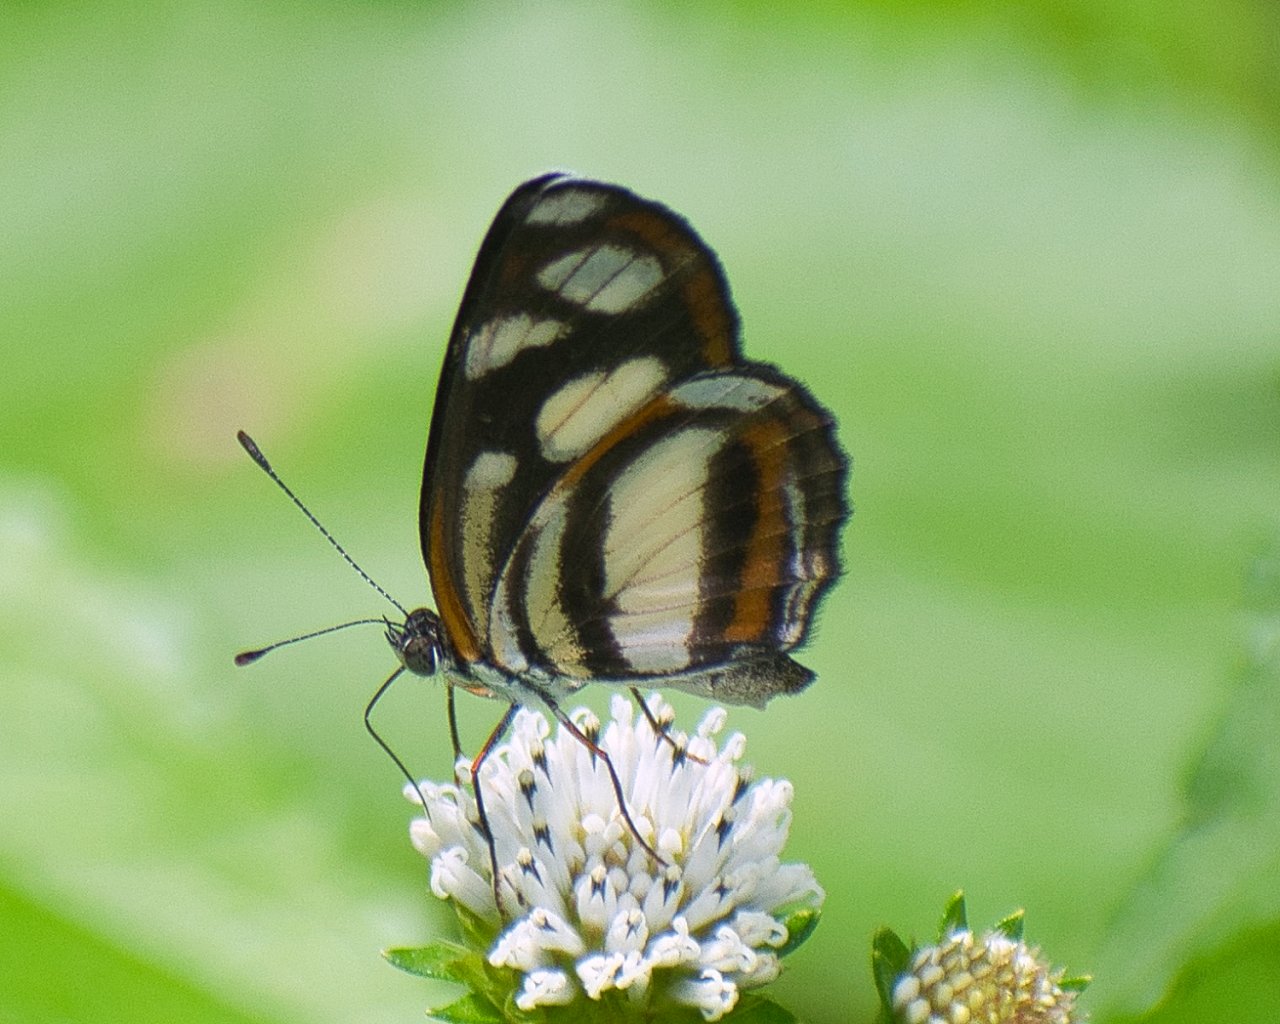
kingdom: Animalia
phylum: Arthropoda
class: Insecta
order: Lepidoptera
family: Nymphalidae
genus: Eresia
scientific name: Eresia clio
